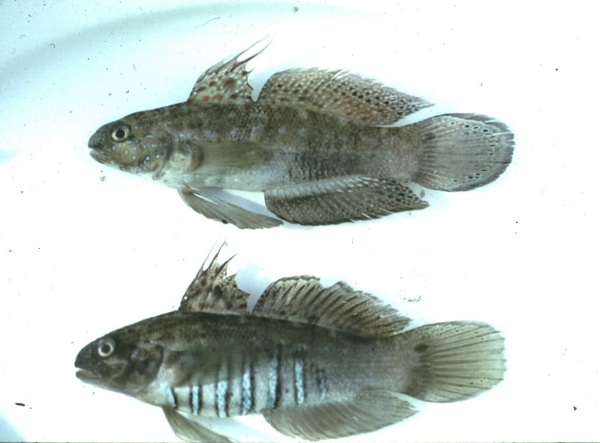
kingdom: Animalia
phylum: Chordata
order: Perciformes
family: Gobiidae
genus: Amblygobius
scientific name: Amblygobius semicinctus
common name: Halfbarred goby
